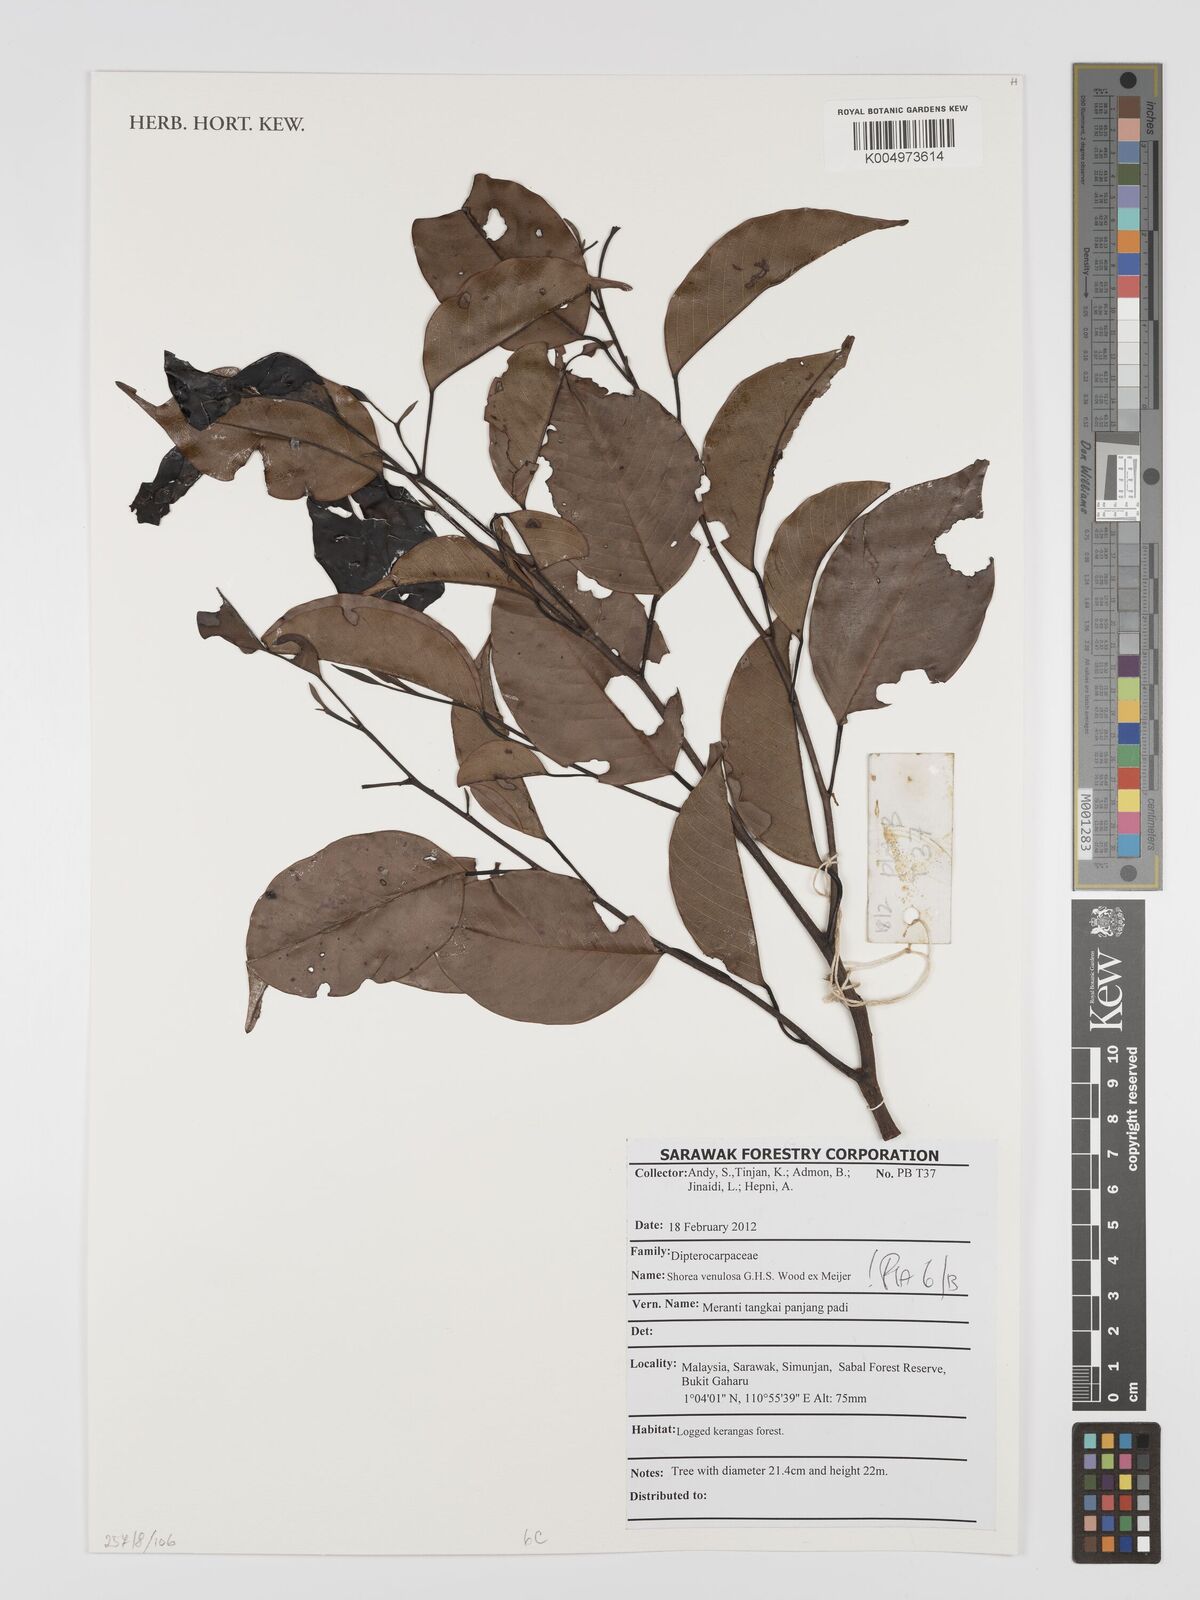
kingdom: Plantae
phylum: Tracheophyta
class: Magnoliopsida
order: Malvales
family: Dipterocarpaceae
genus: Shorea
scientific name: Shorea venulosa
